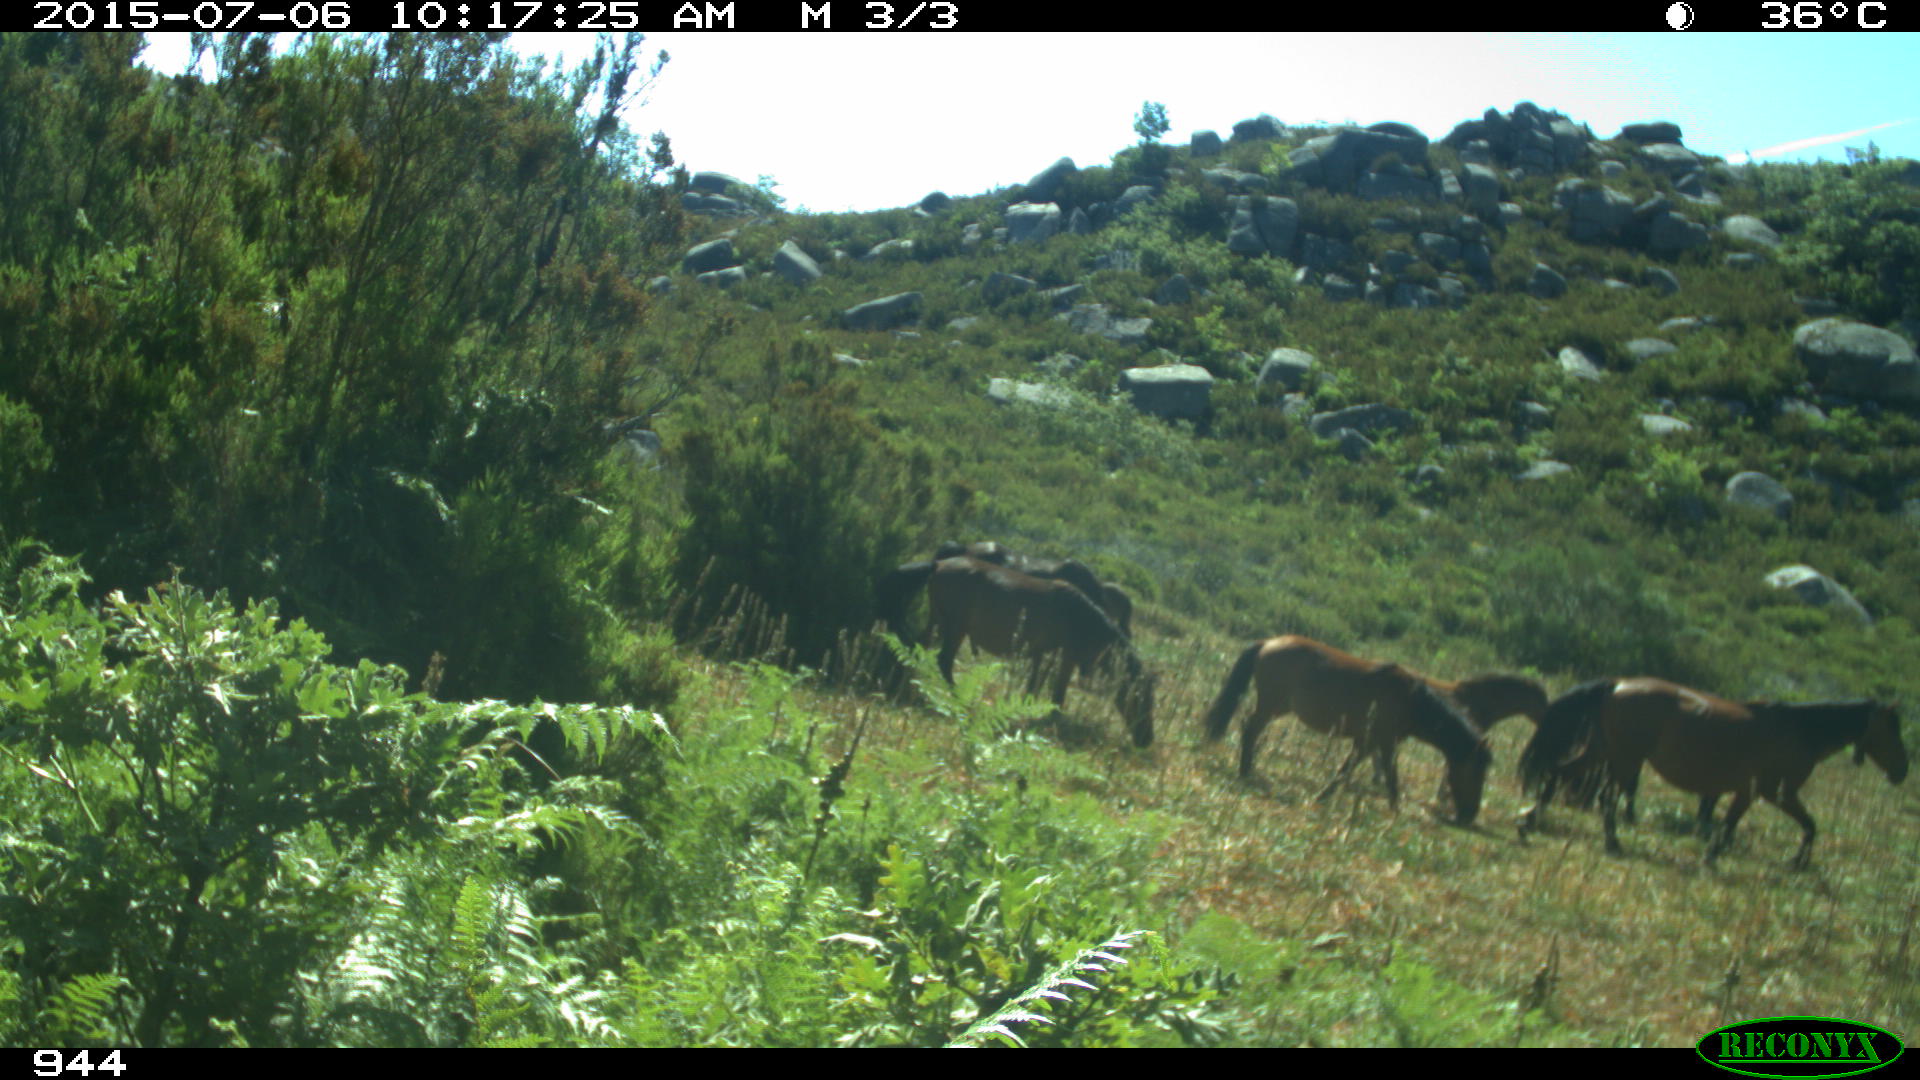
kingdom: Animalia
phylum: Chordata
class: Mammalia
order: Perissodactyla
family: Equidae
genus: Equus
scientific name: Equus caballus
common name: Horse
